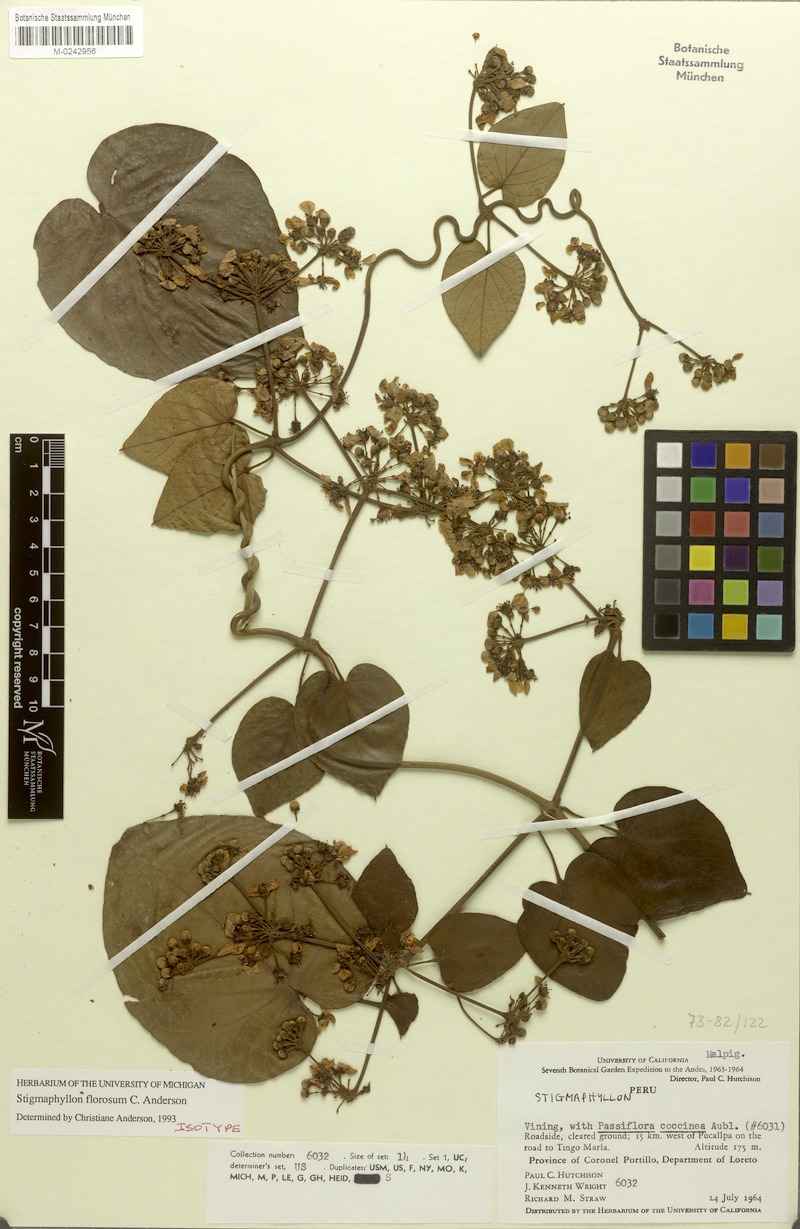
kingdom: Plantae
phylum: Tracheophyta
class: Magnoliopsida
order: Malpighiales
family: Malpighiaceae
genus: Stigmaphyllon
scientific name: Stigmaphyllon florosum
